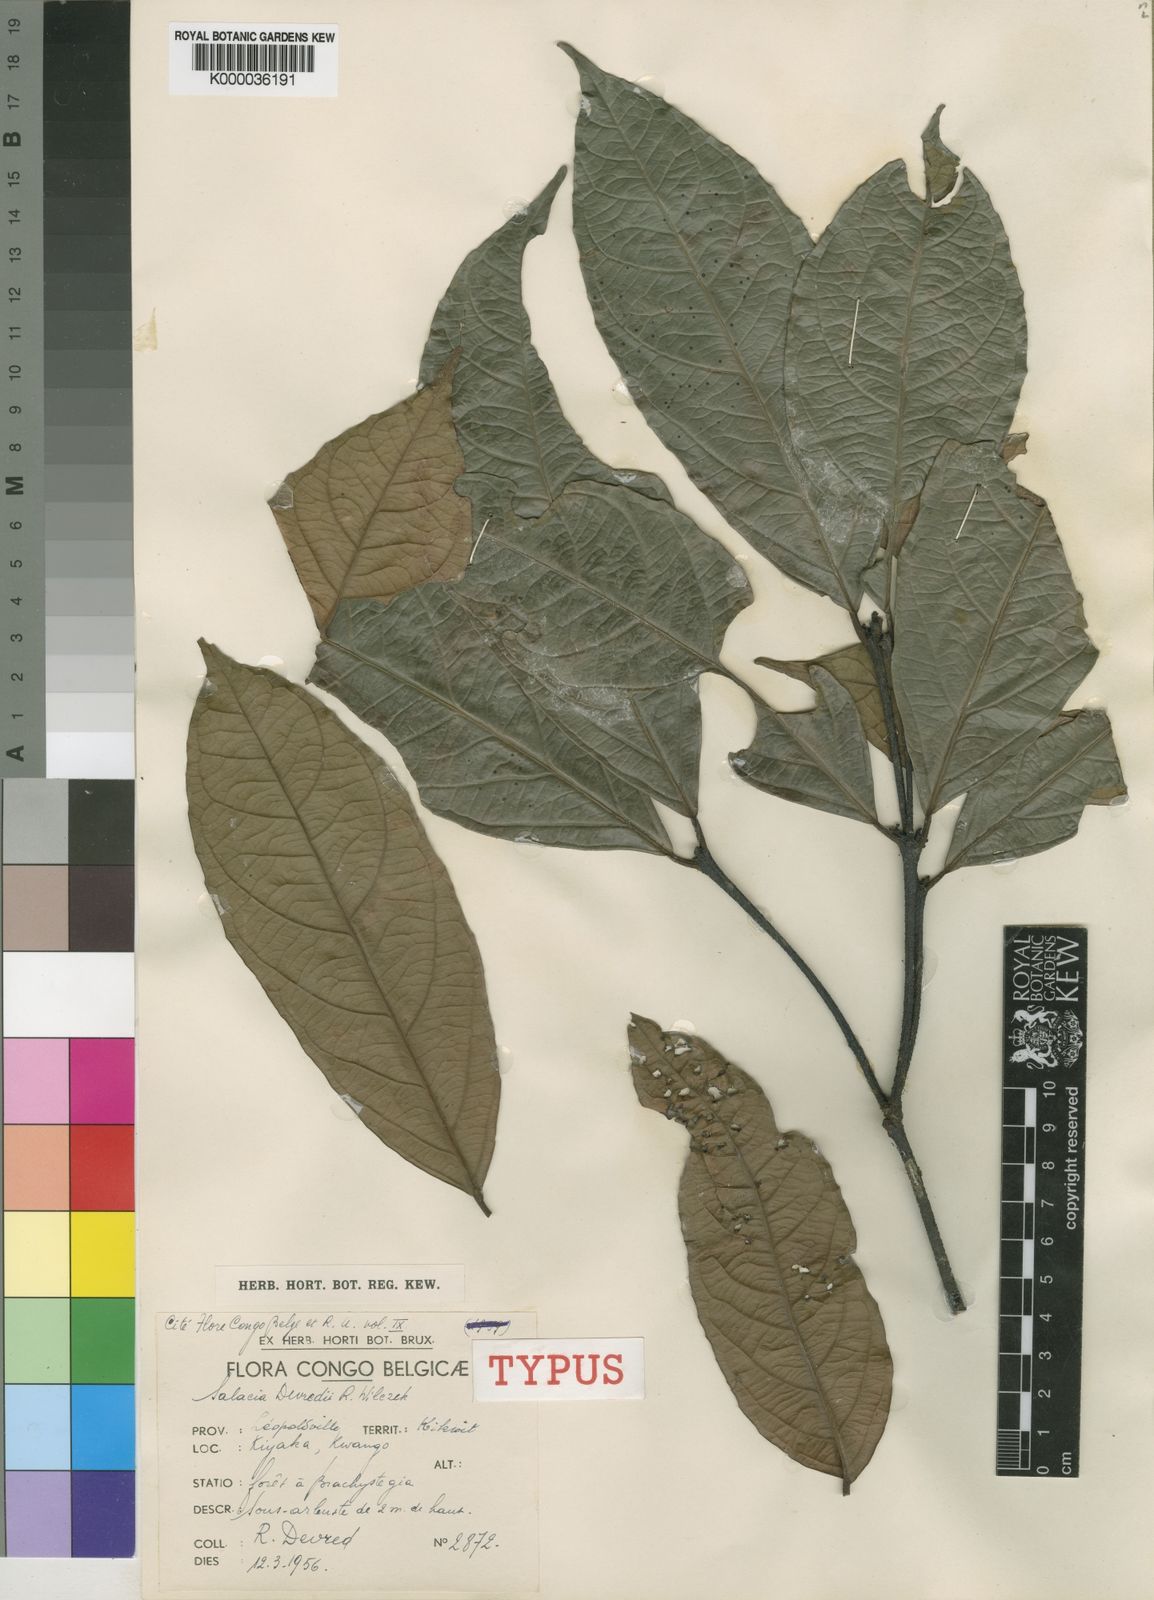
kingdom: Plantae
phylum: Tracheophyta
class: Magnoliopsida
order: Celastrales
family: Celastraceae
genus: Salacia
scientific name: Salacia devredii
